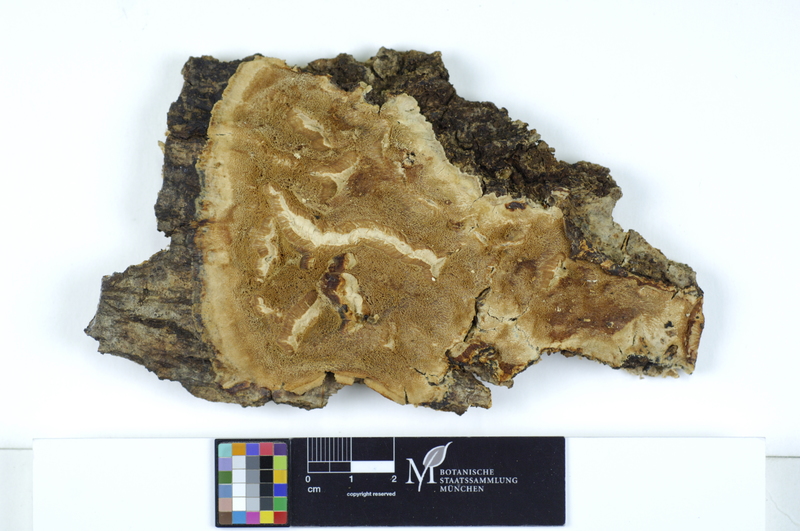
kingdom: Plantae
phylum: Tracheophyta
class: Magnoliopsida
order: Sapindales
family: Sapindaceae
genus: Acer
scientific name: Acer platanoides
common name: Norway maple
